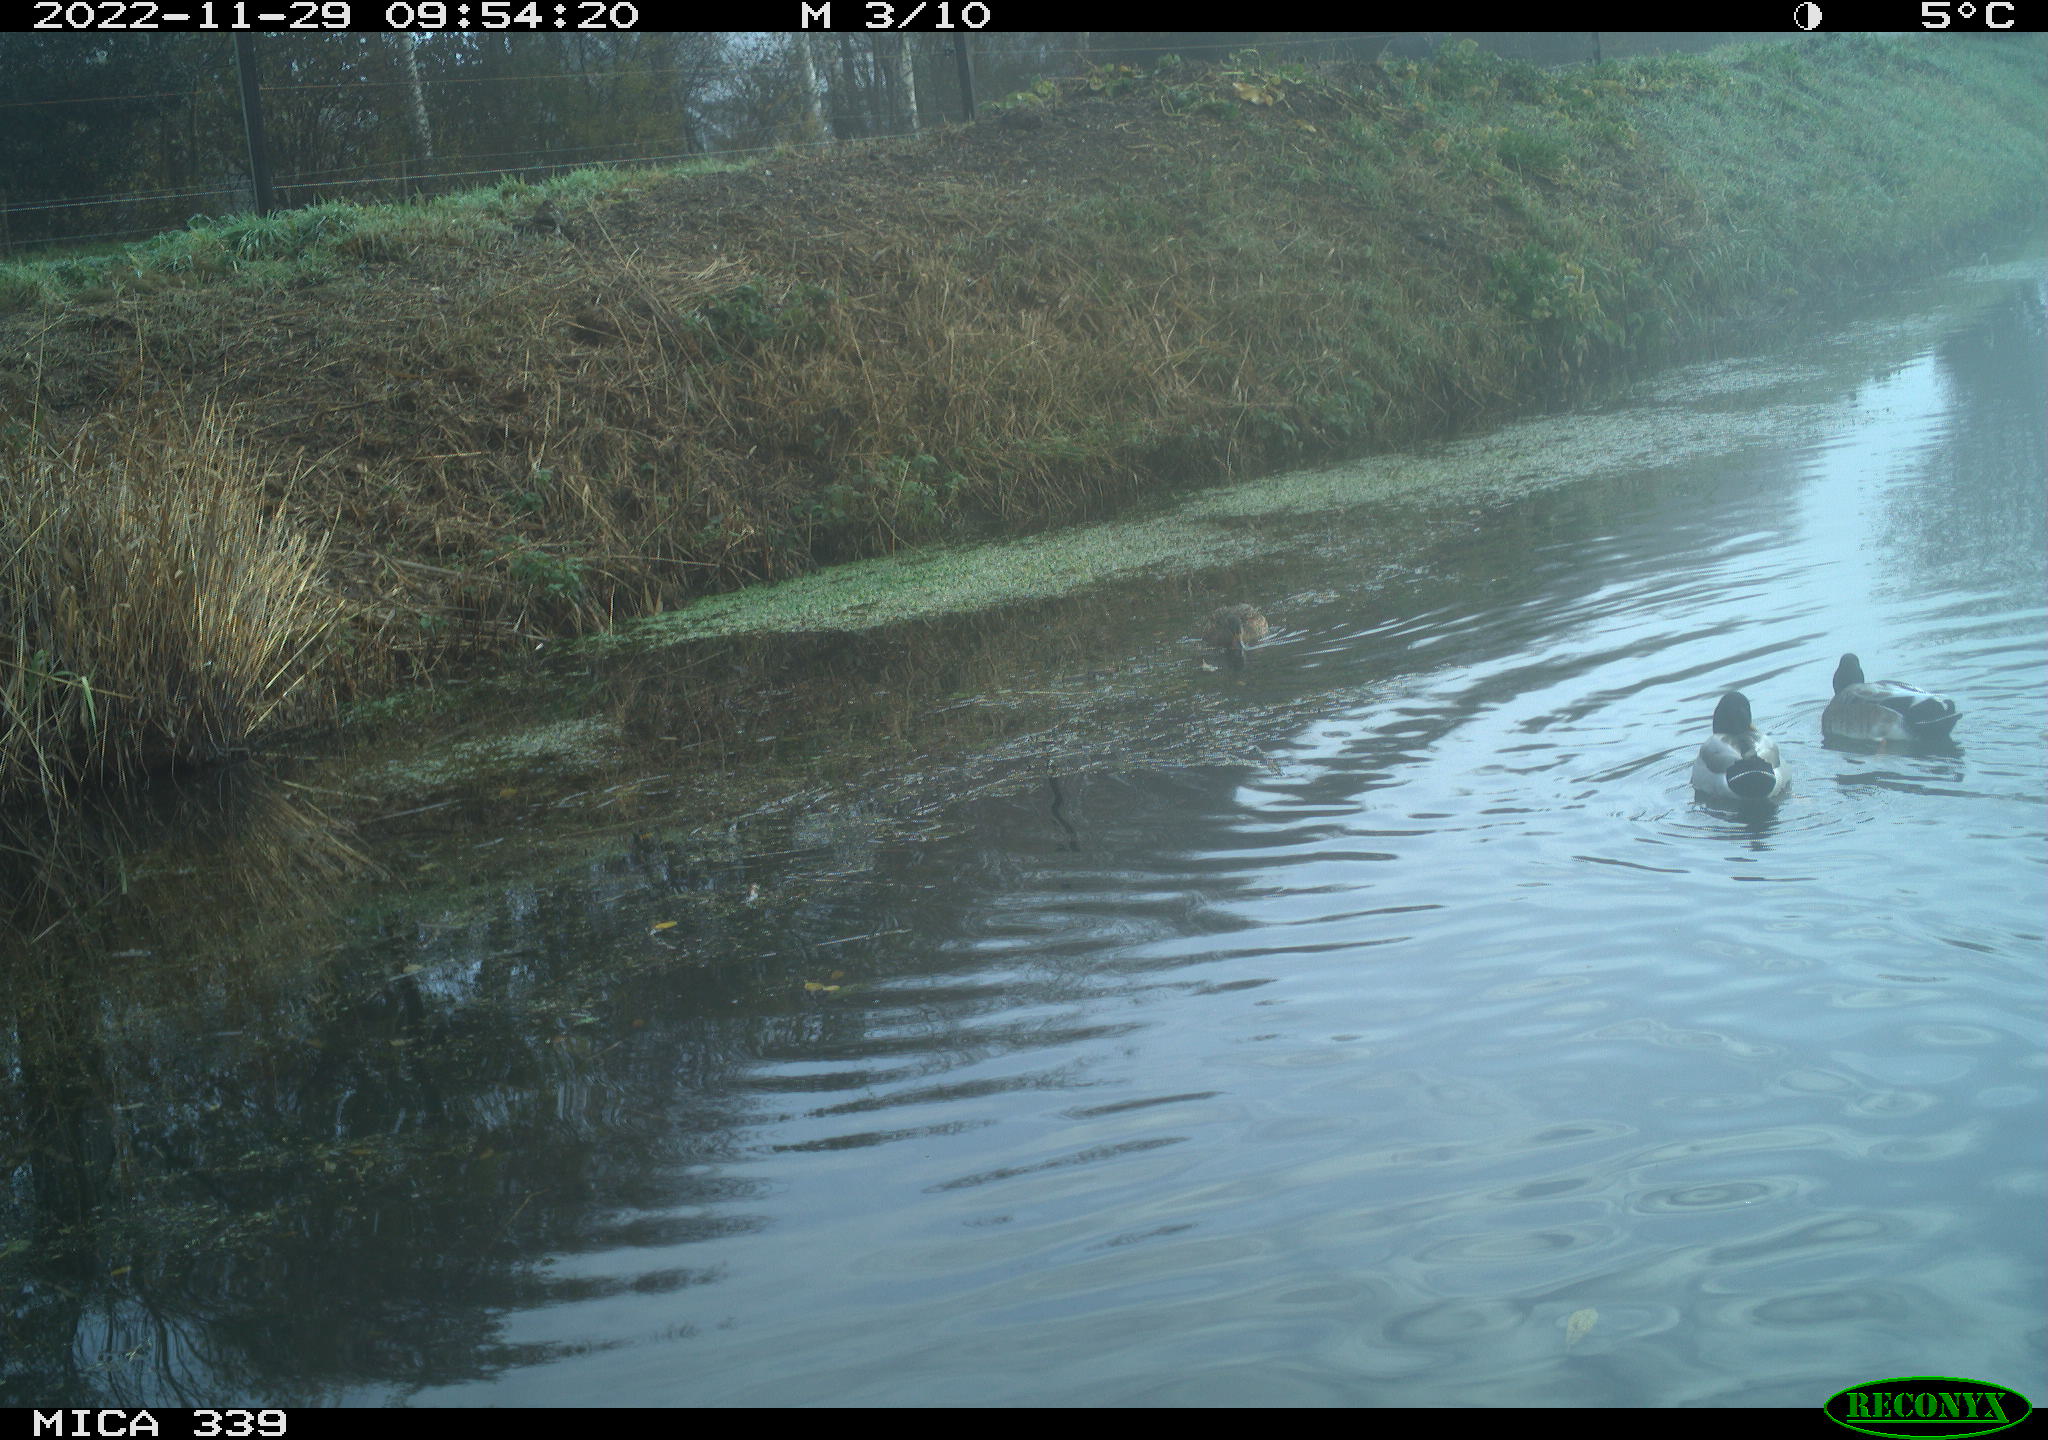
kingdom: Animalia
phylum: Chordata
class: Aves
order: Anseriformes
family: Anatidae
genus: Anas
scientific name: Anas
